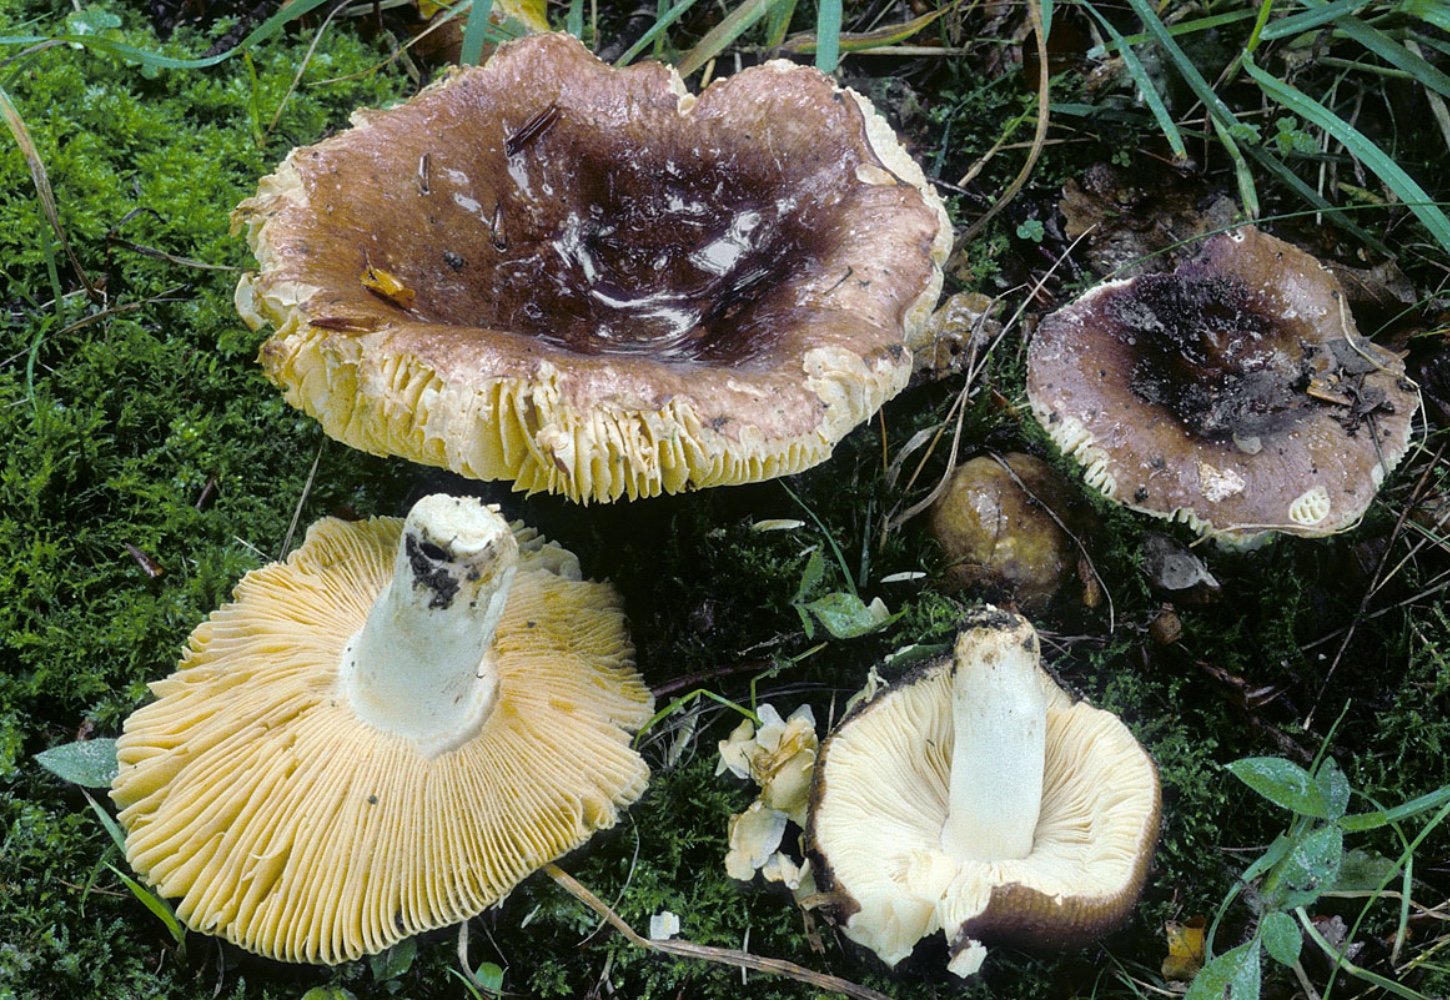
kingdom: Fungi
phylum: Basidiomycota
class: Agaricomycetes
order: Russulales
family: Russulaceae
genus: Russula
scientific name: Russula sericatula
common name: brunrød skørhat
